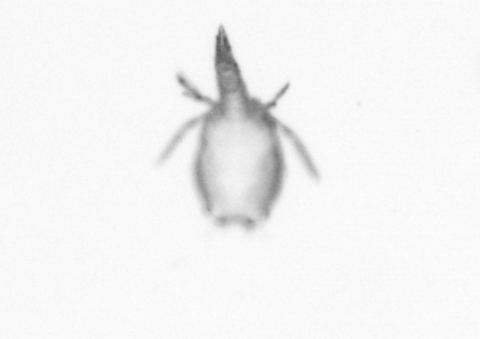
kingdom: Animalia
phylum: Arthropoda
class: Copepoda
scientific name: Copepoda
